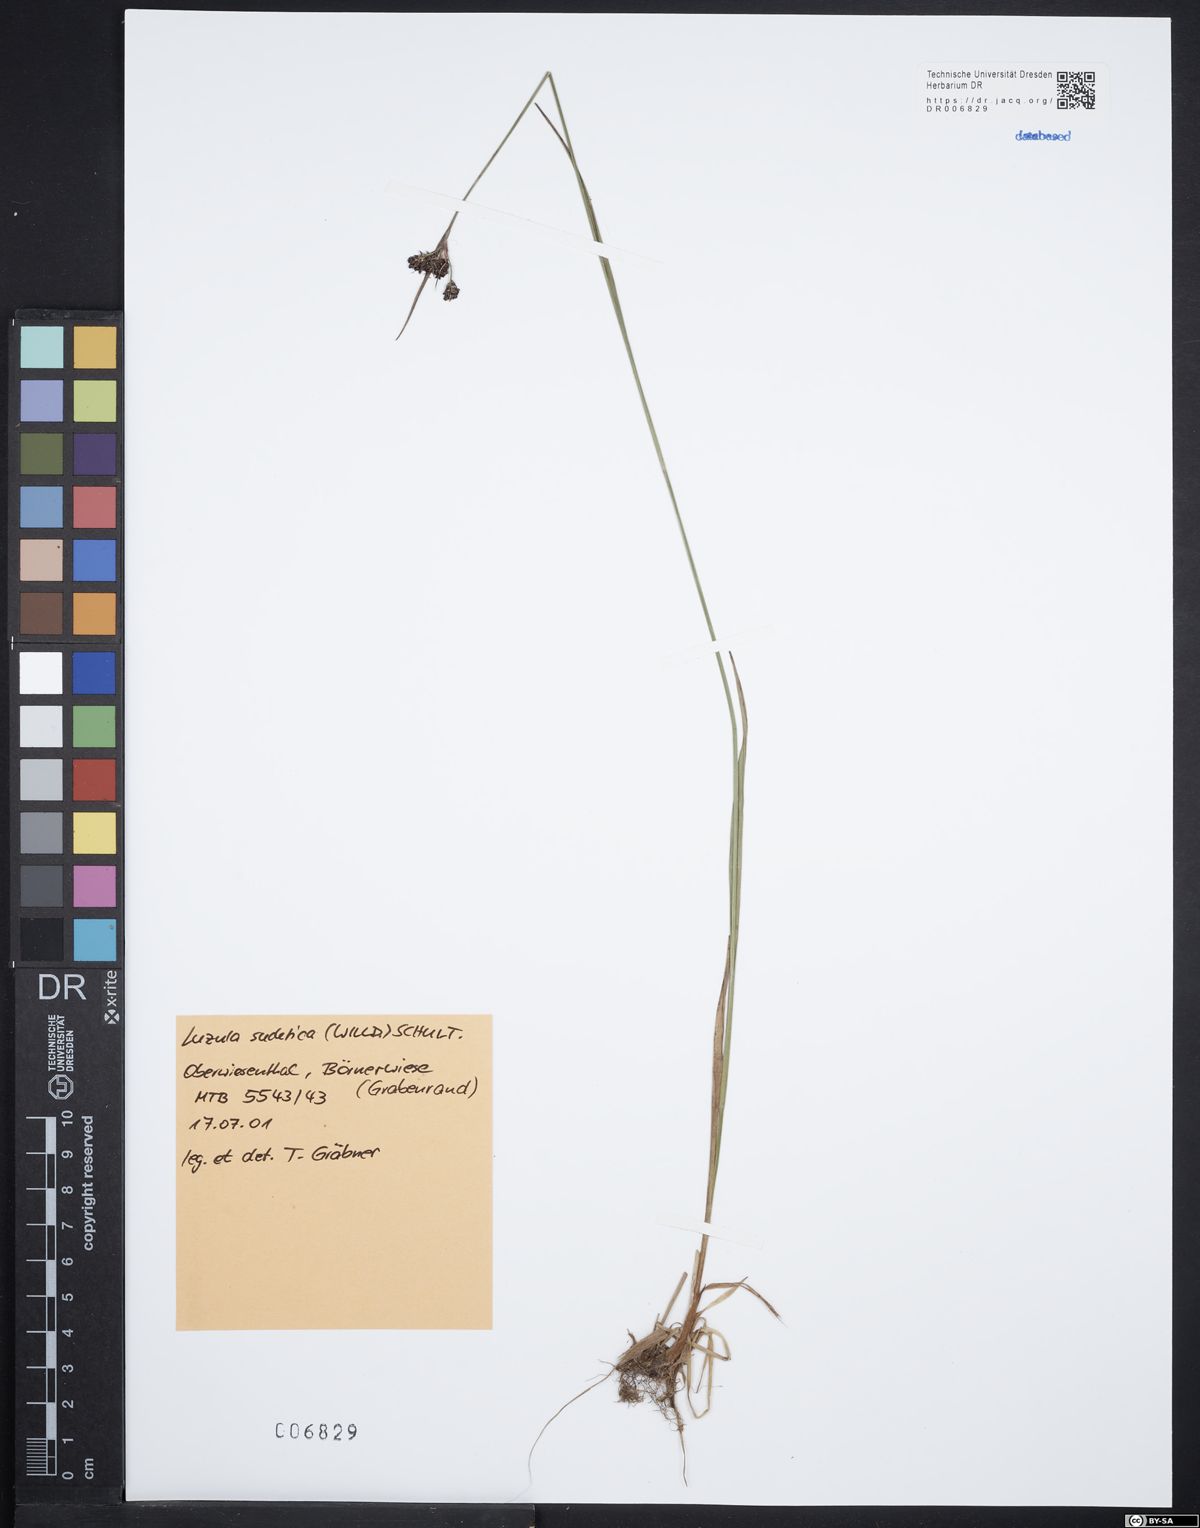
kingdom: Plantae
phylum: Tracheophyta
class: Liliopsida
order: Poales
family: Juncaceae
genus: Luzula
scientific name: Luzula sudetica
